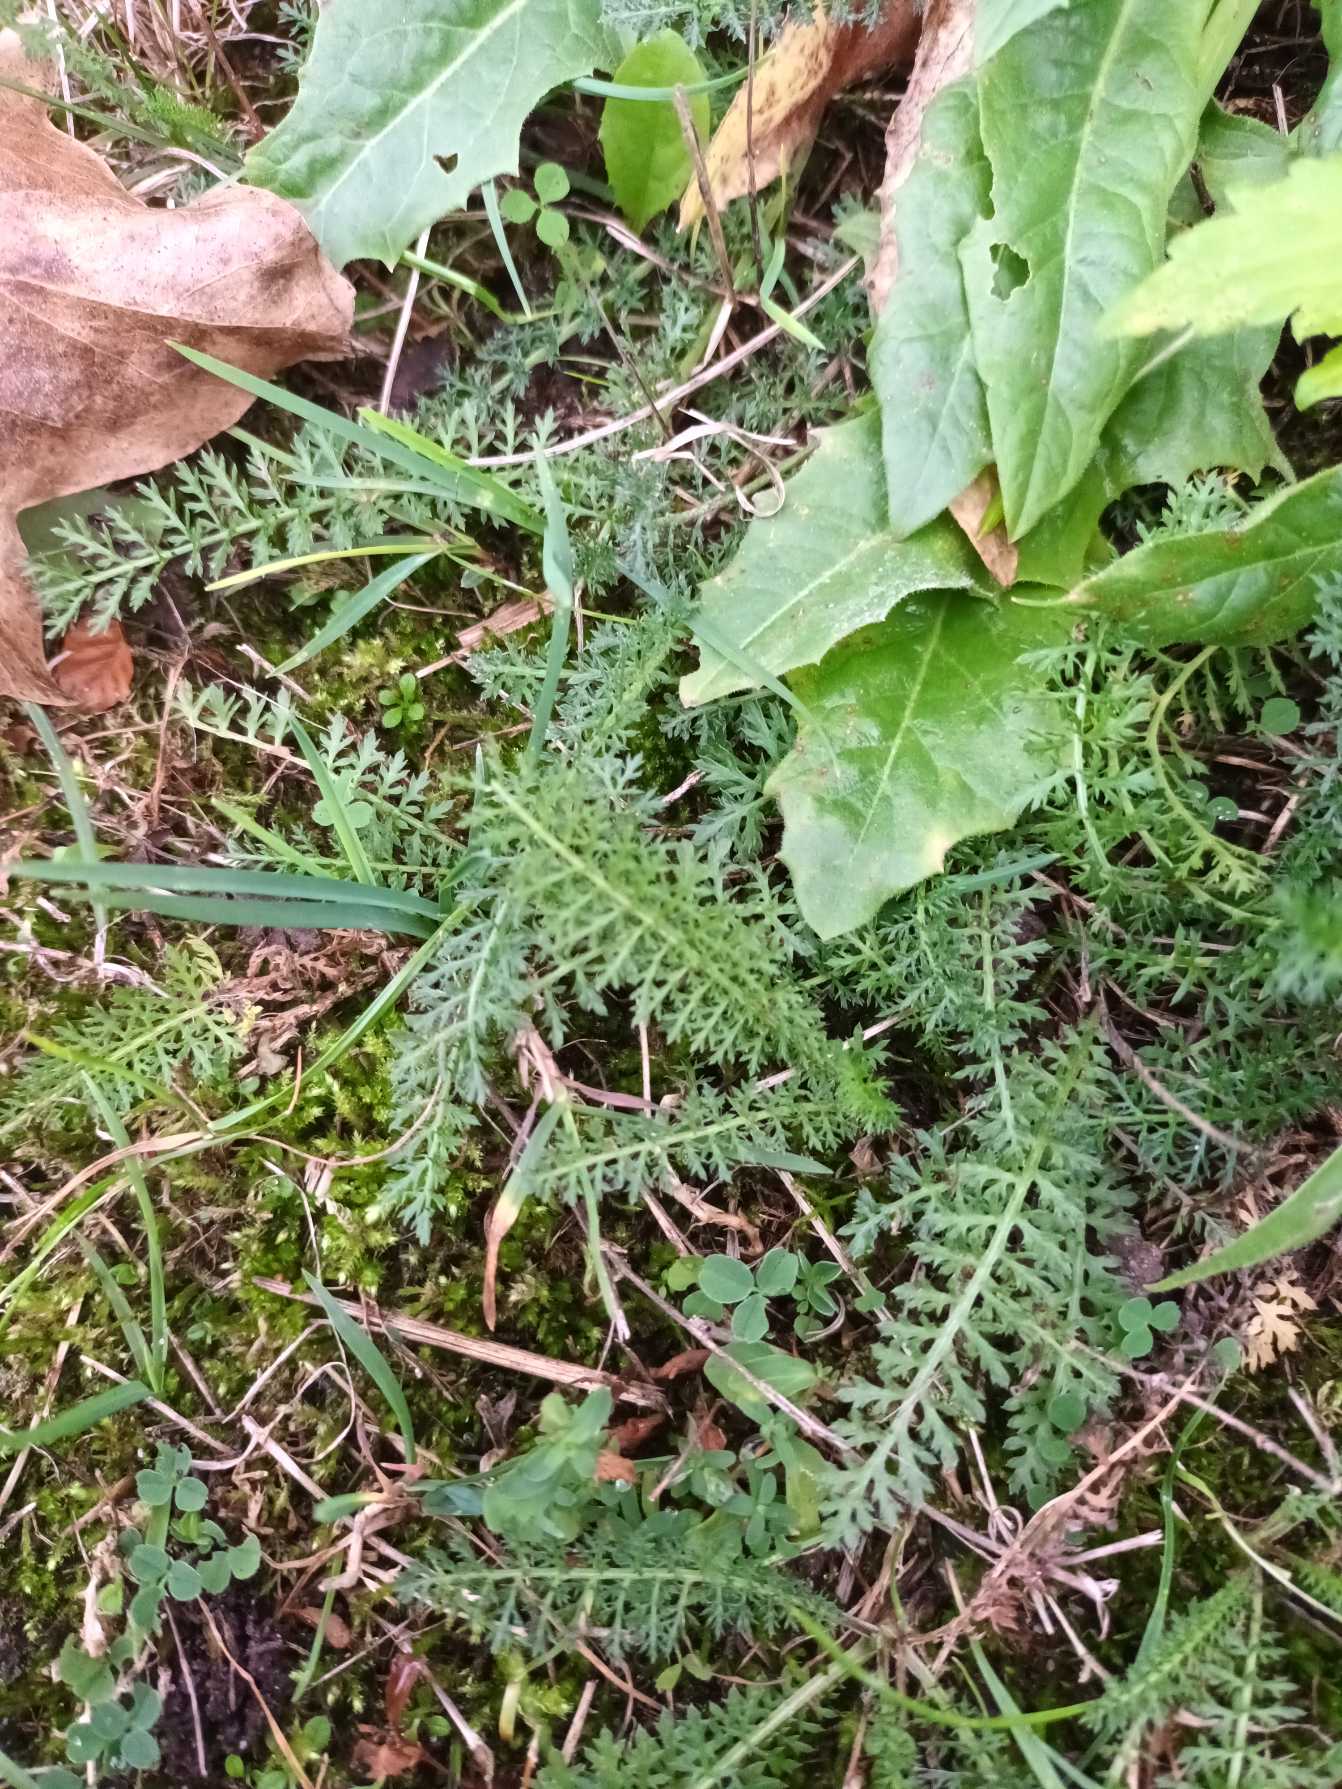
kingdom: Plantae
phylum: Tracheophyta
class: Magnoliopsida
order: Asterales
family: Asteraceae
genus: Achillea
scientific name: Achillea millefolium
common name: Almindelig røllike
